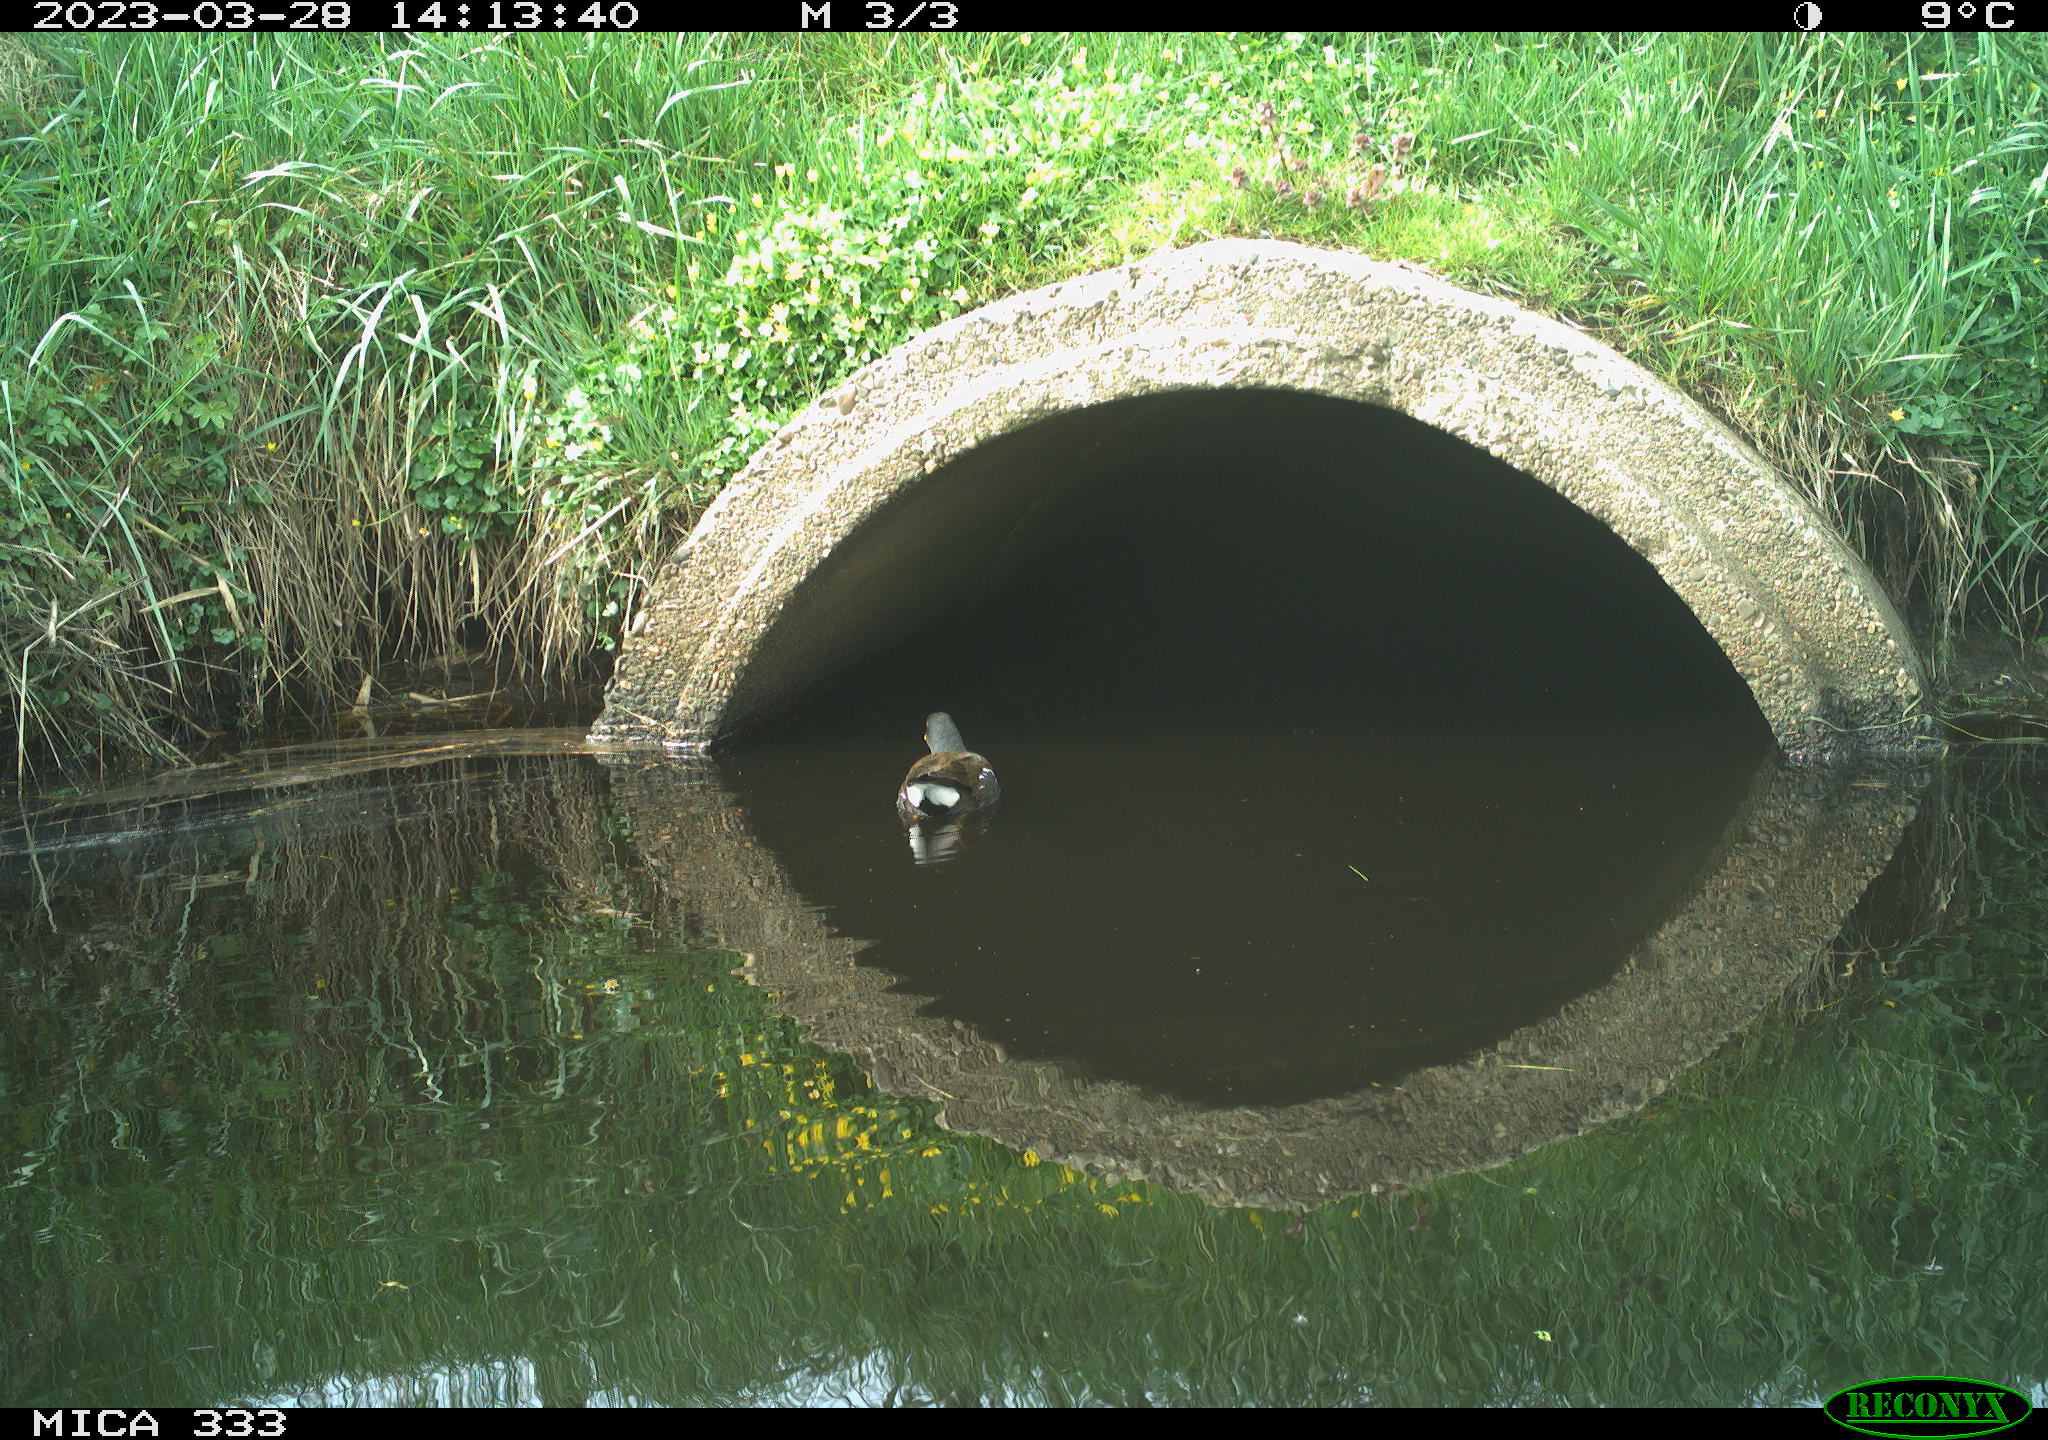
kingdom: Animalia
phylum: Chordata
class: Aves
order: Gruiformes
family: Rallidae
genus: Gallinula
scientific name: Gallinula chloropus
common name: Common moorhen
